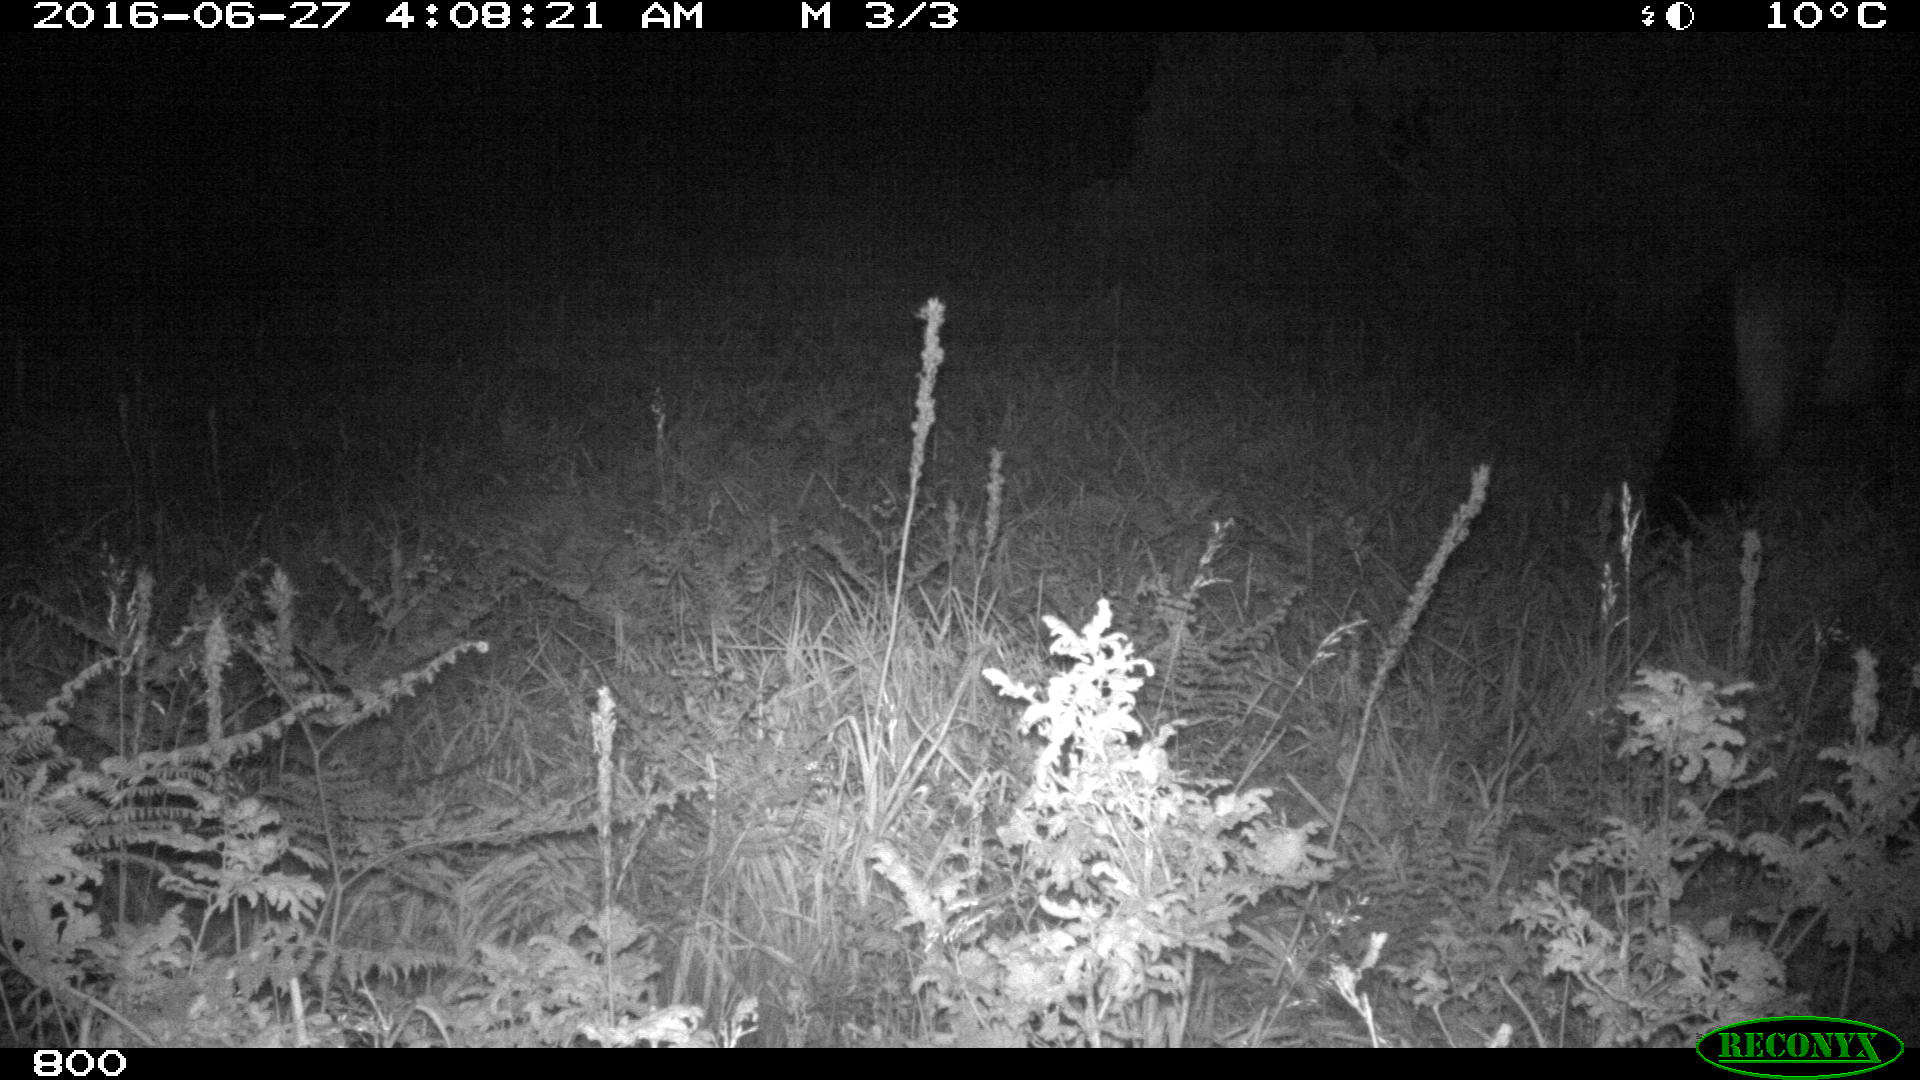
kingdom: Animalia
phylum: Chordata
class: Mammalia
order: Perissodactyla
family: Equidae
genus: Equus
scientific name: Equus caballus
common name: Horse
